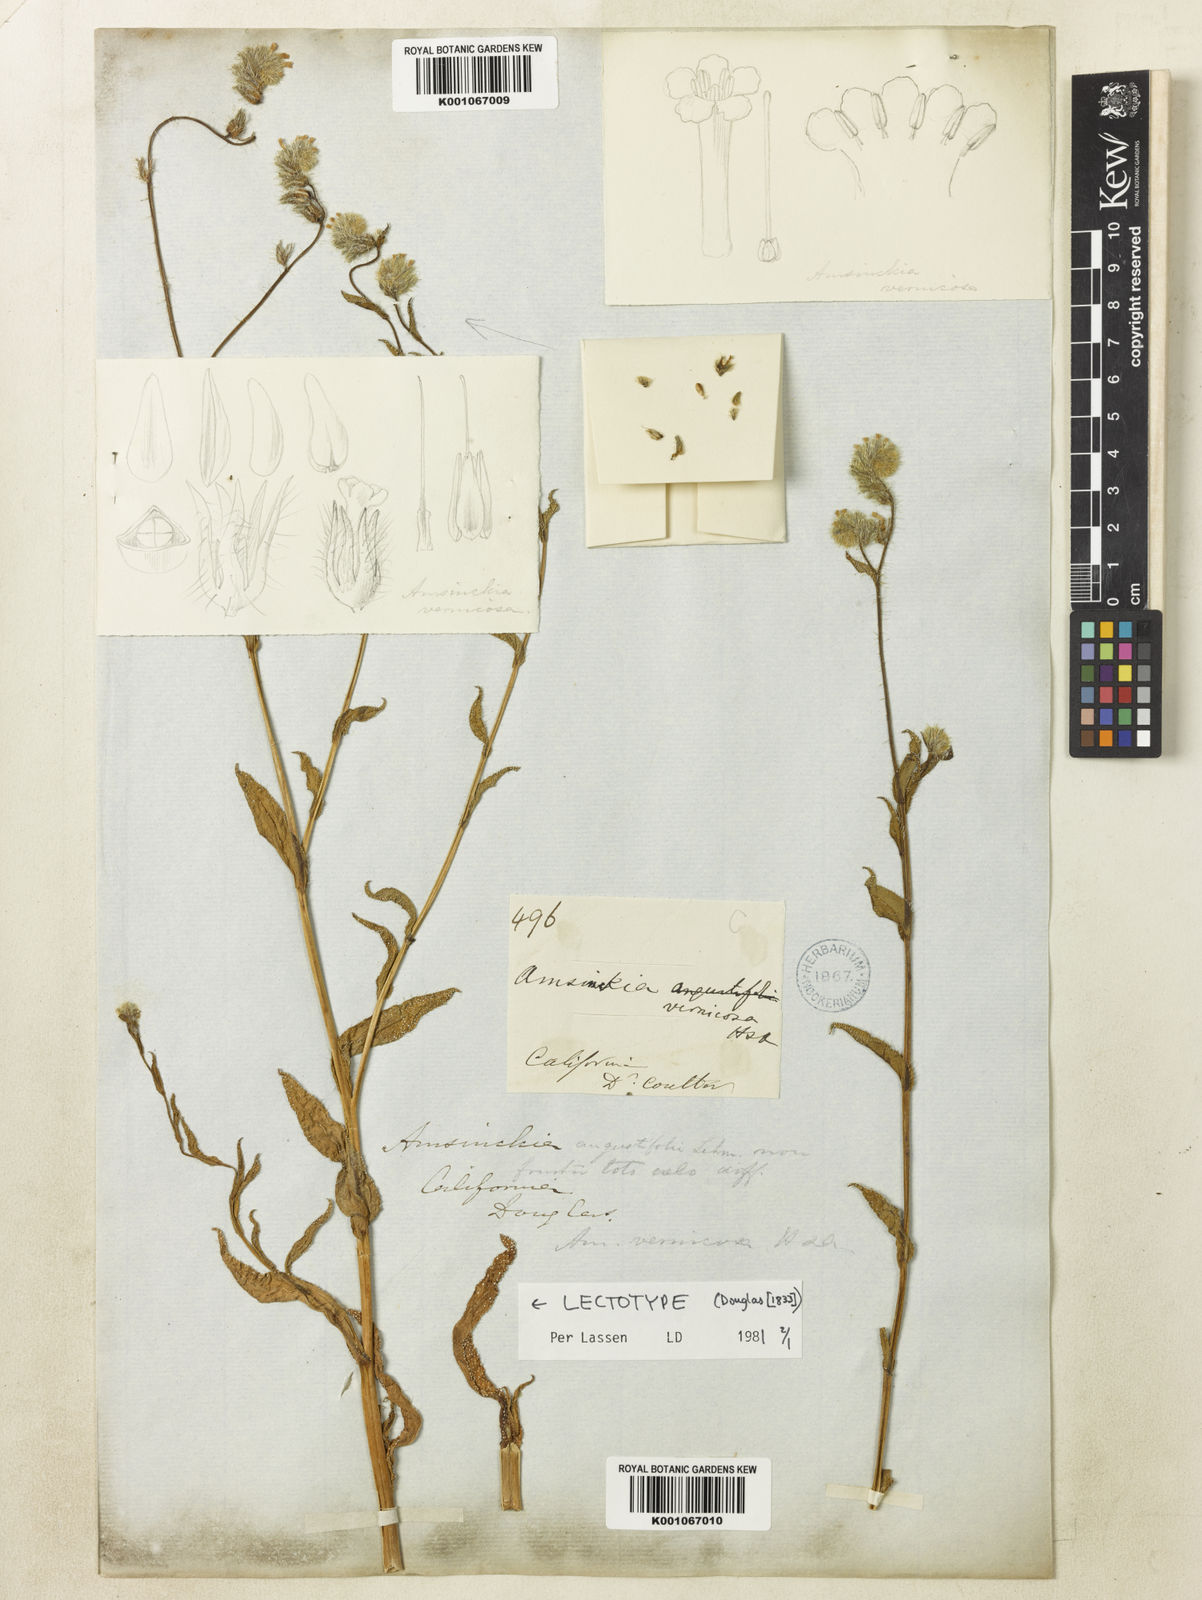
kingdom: Plantae
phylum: Tracheophyta
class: Magnoliopsida
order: Boraginales
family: Boraginaceae
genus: Amsinckia
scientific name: Amsinckia vernicosa
